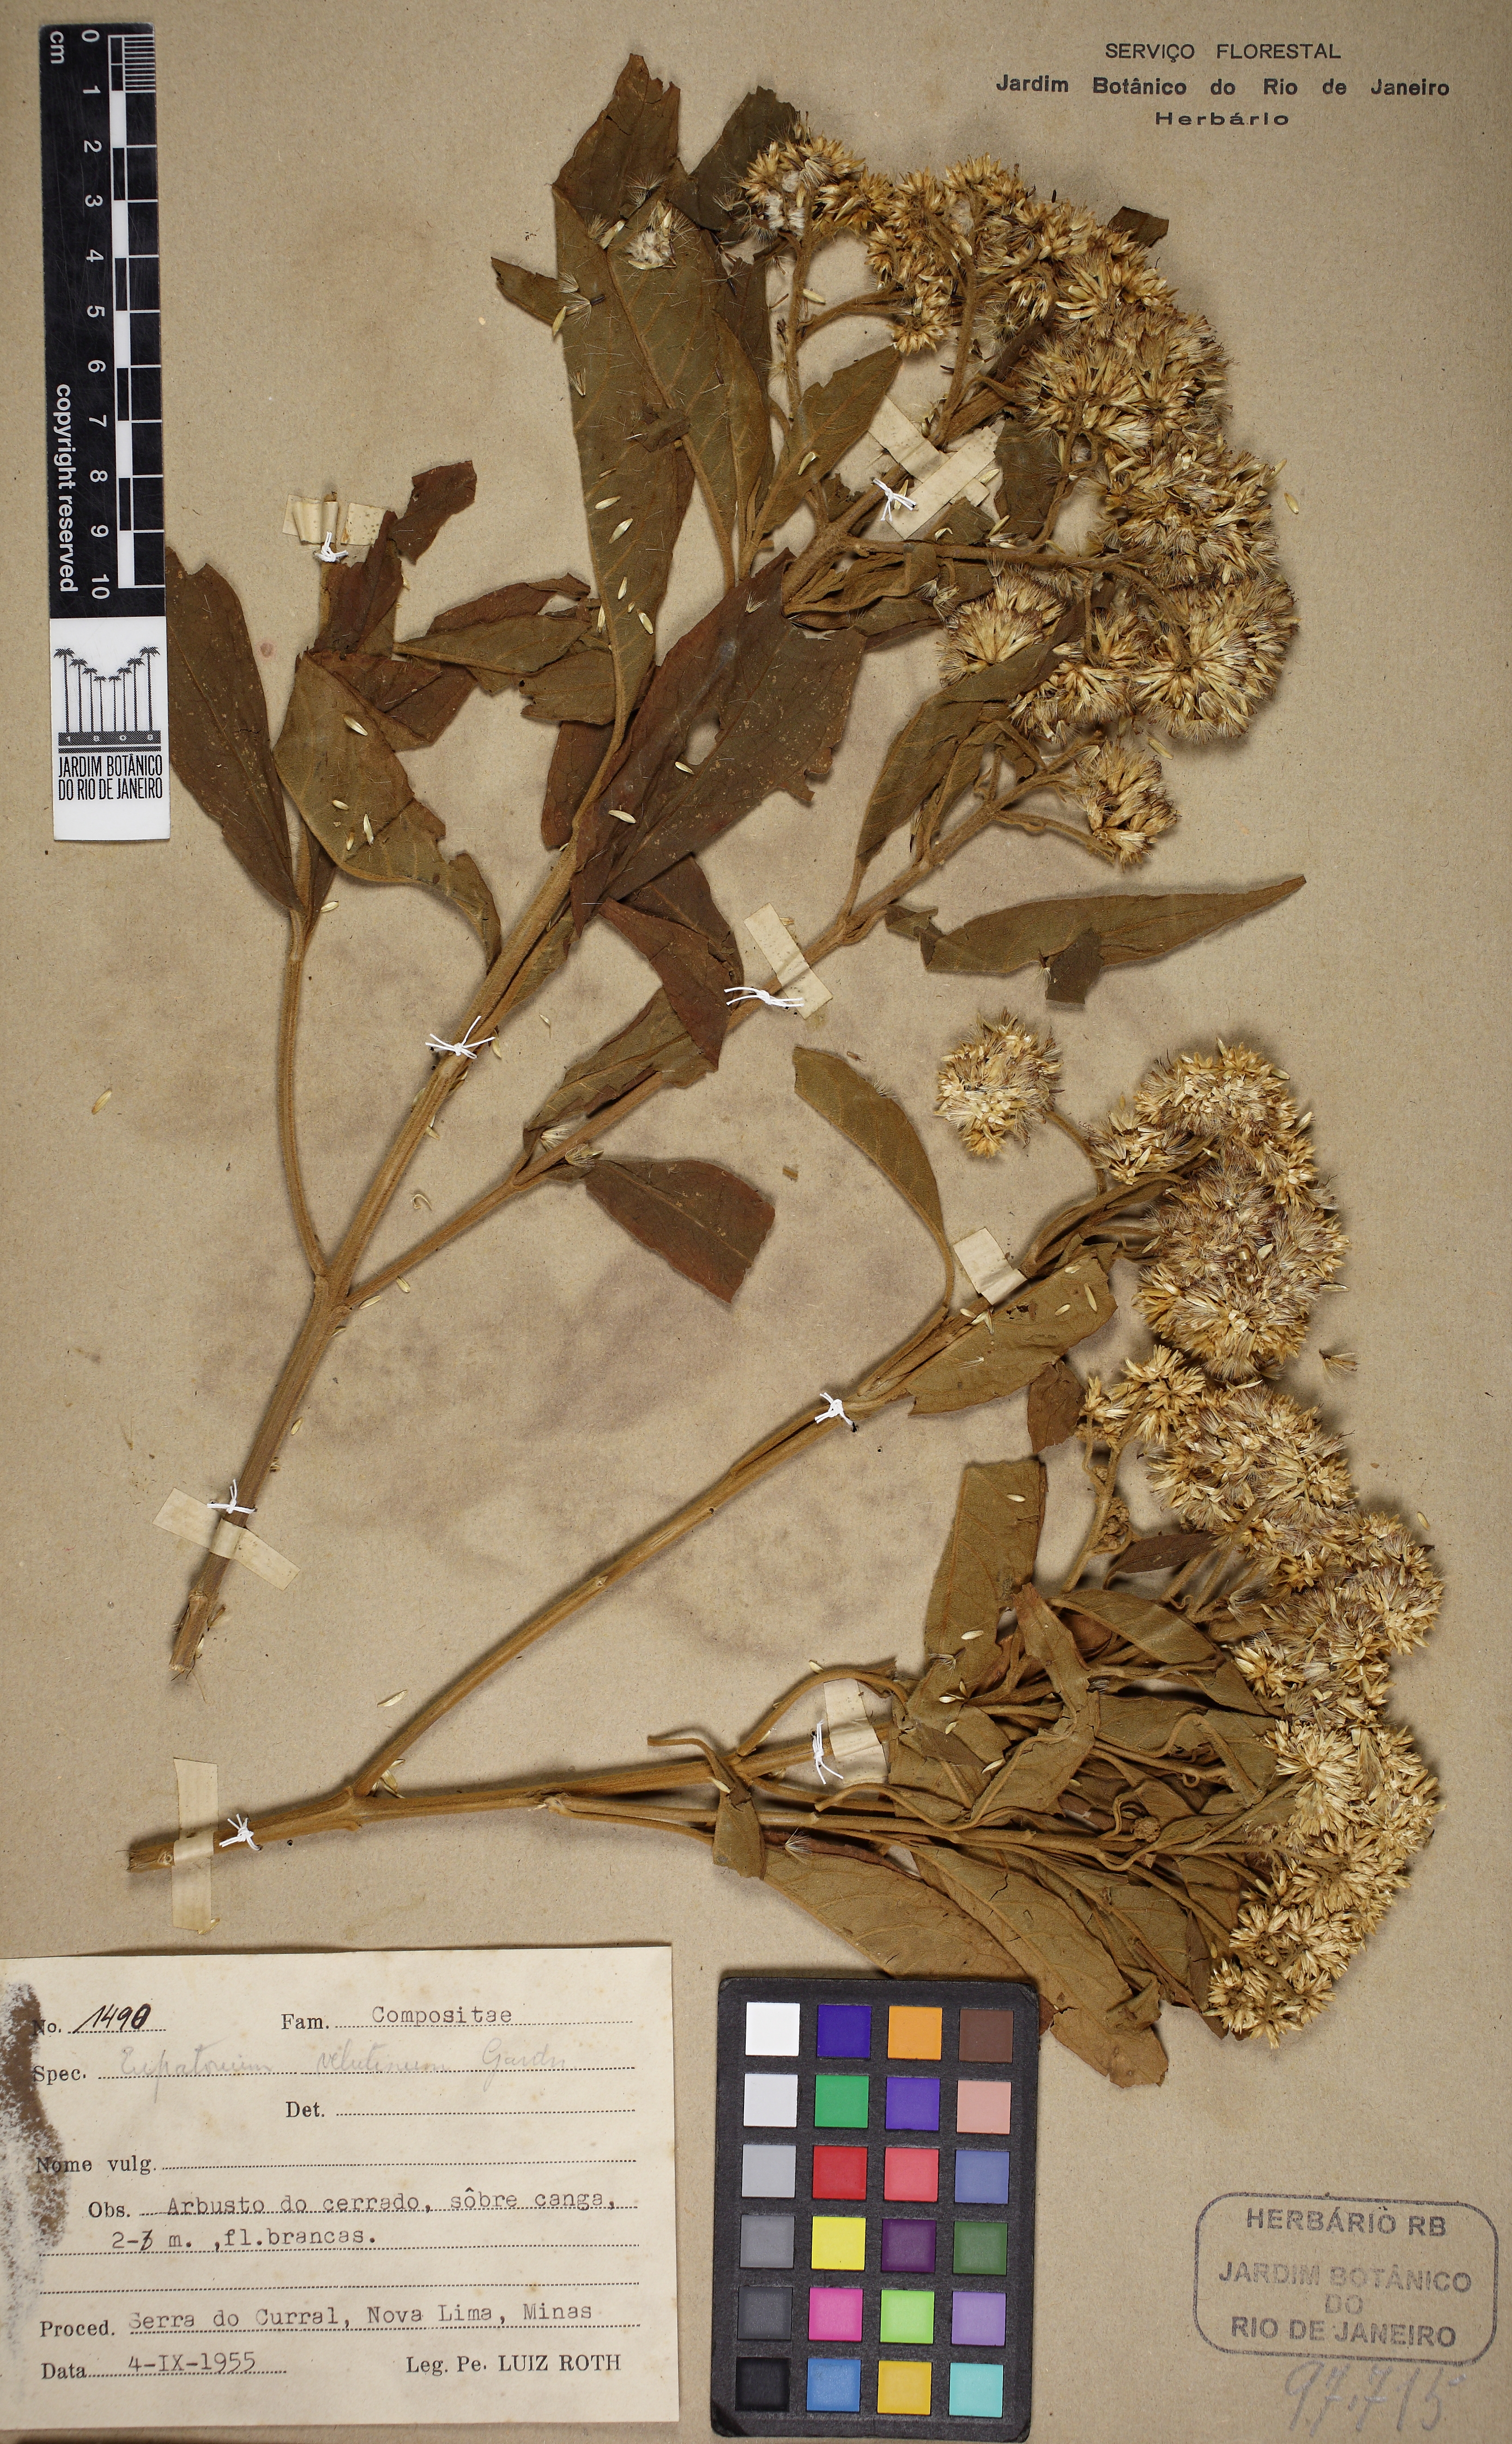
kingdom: Plantae
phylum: Tracheophyta
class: Magnoliopsida
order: Asterales
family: Asteraceae
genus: Austrocritonia
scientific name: Austrocritonia velutina
